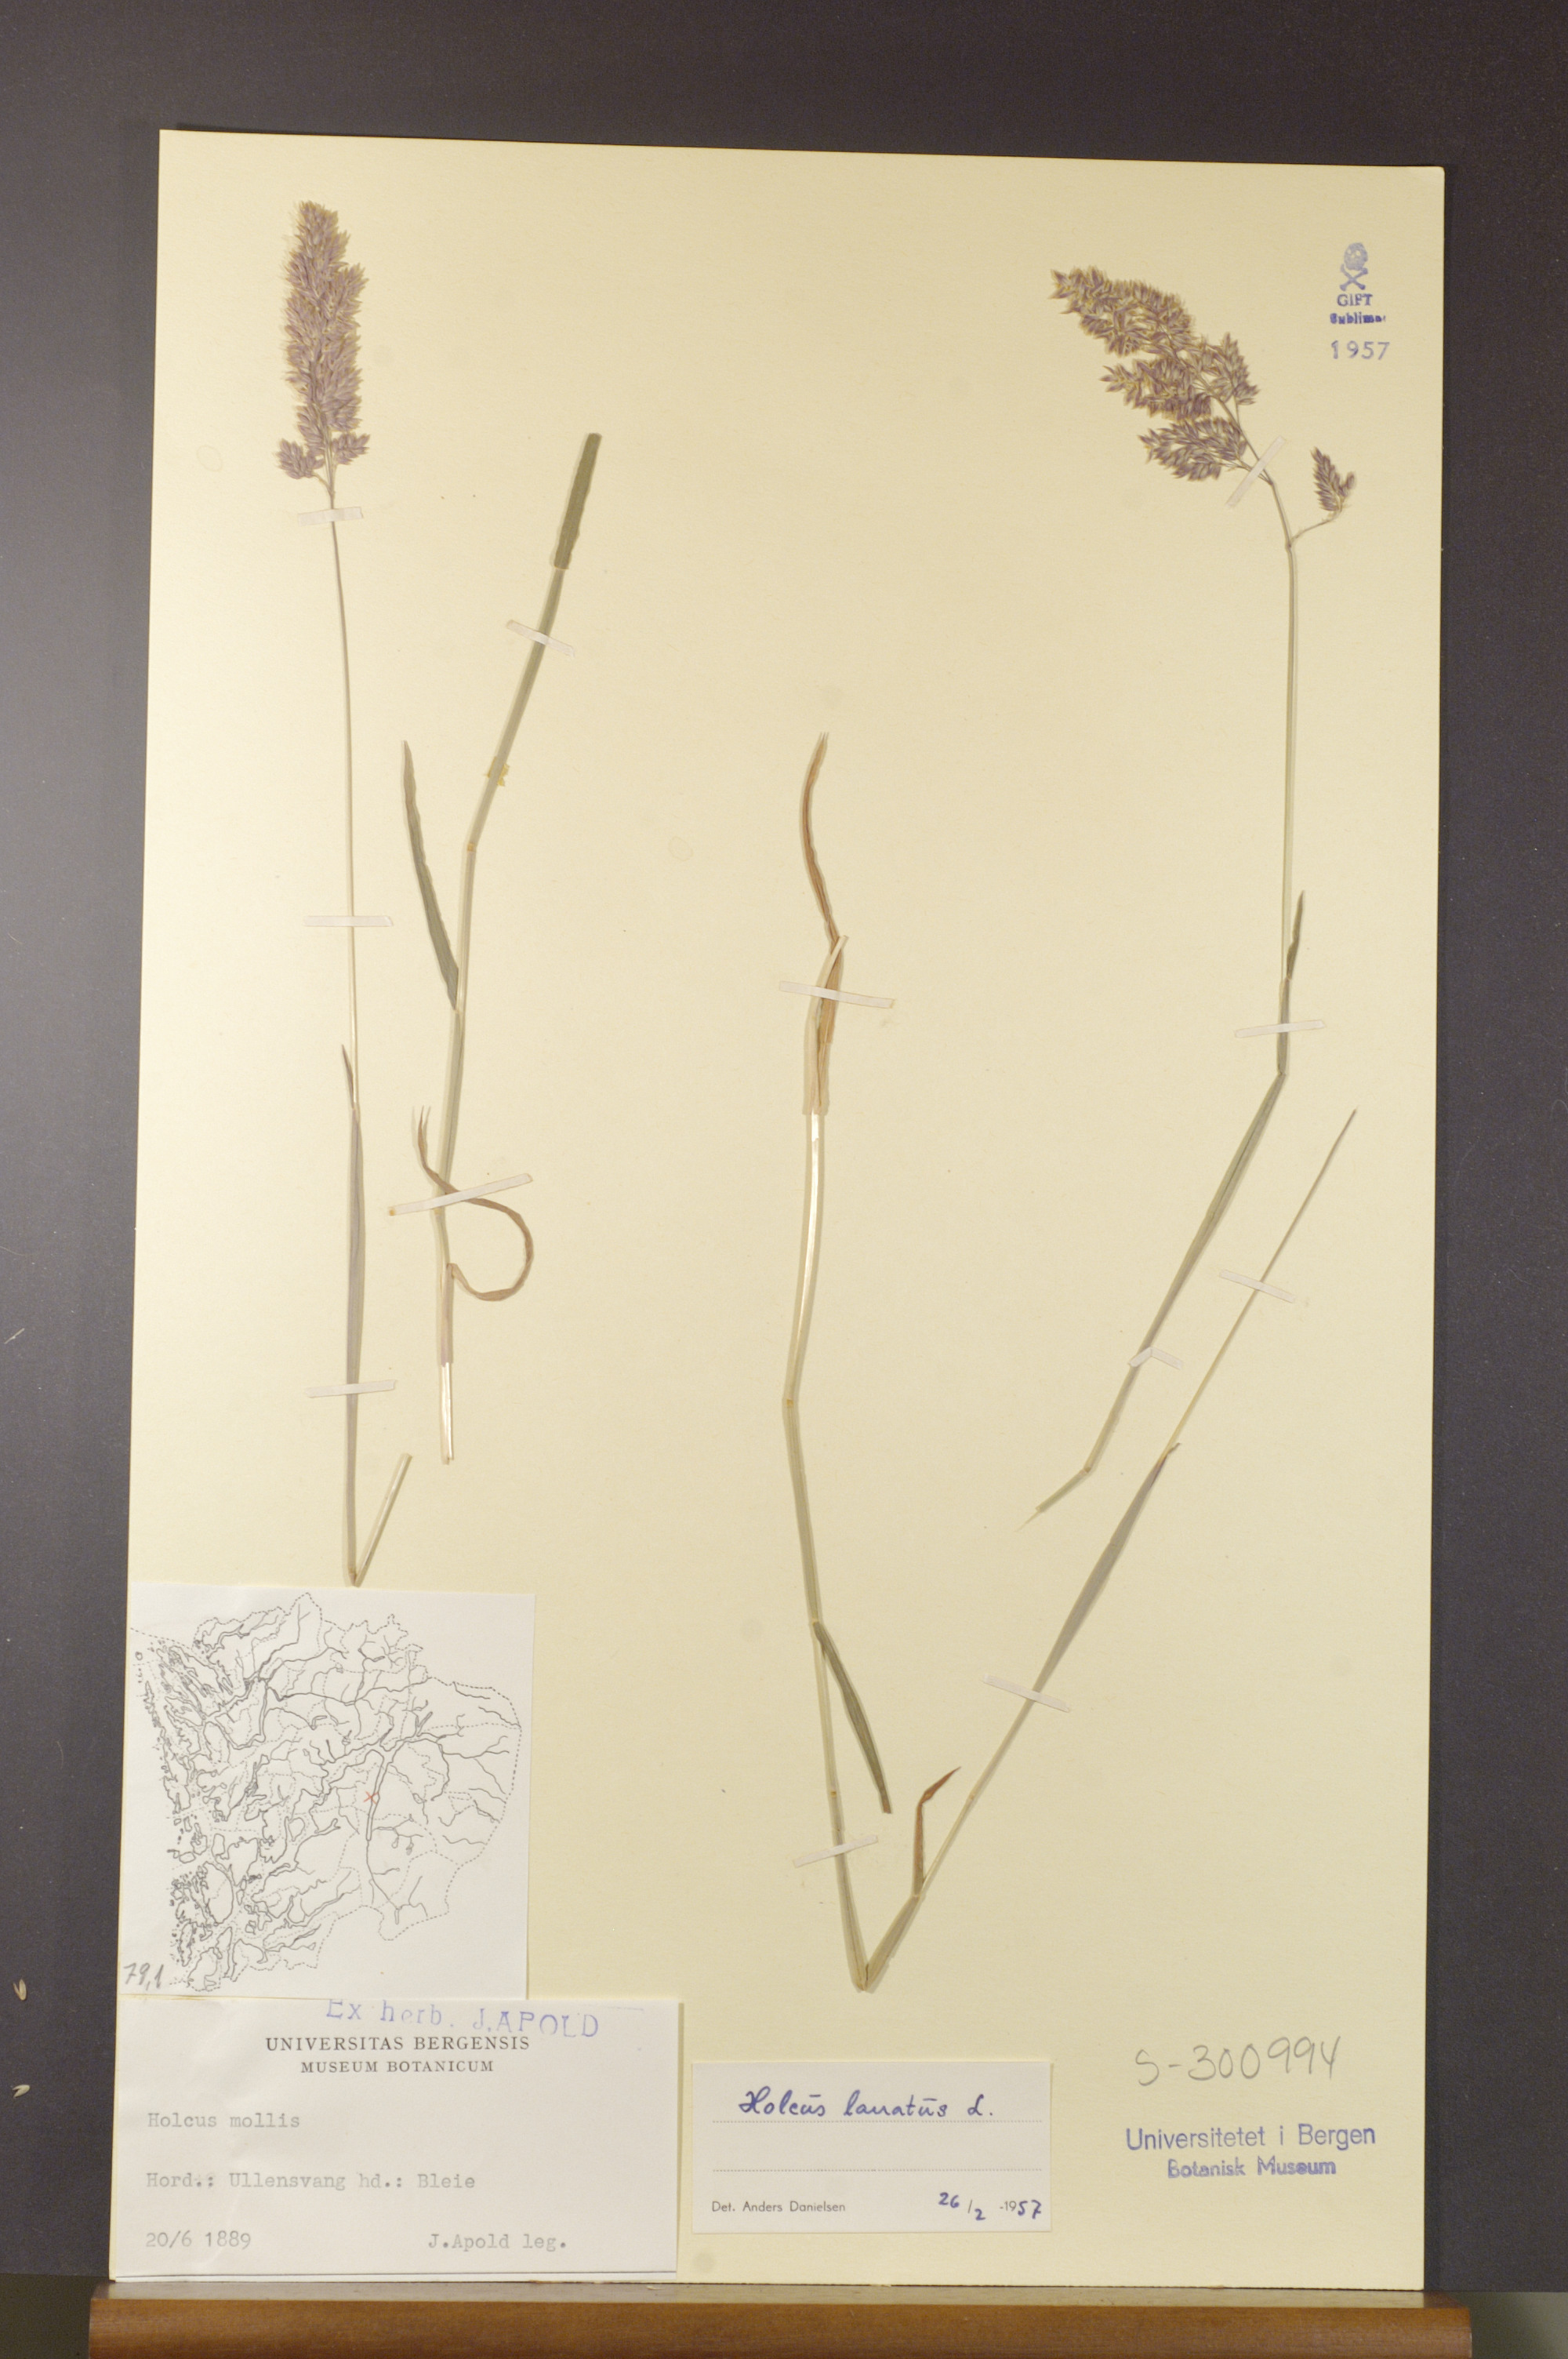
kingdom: Plantae
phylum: Tracheophyta
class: Liliopsida
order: Poales
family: Poaceae
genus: Holcus
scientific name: Holcus lanatus
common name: Yorkshire-fog
